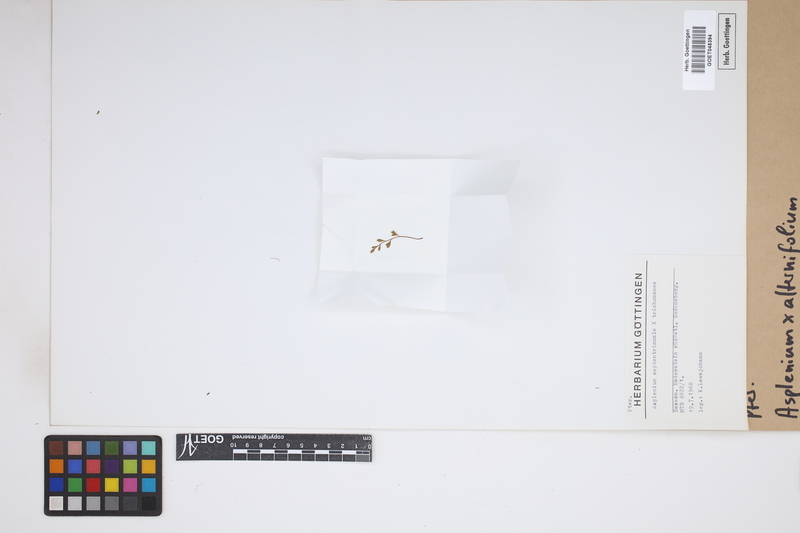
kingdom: Plantae
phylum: Tracheophyta
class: Polypodiopsida
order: Polypodiales
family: Aspleniaceae
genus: Asplenium
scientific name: Asplenium alternifolium
